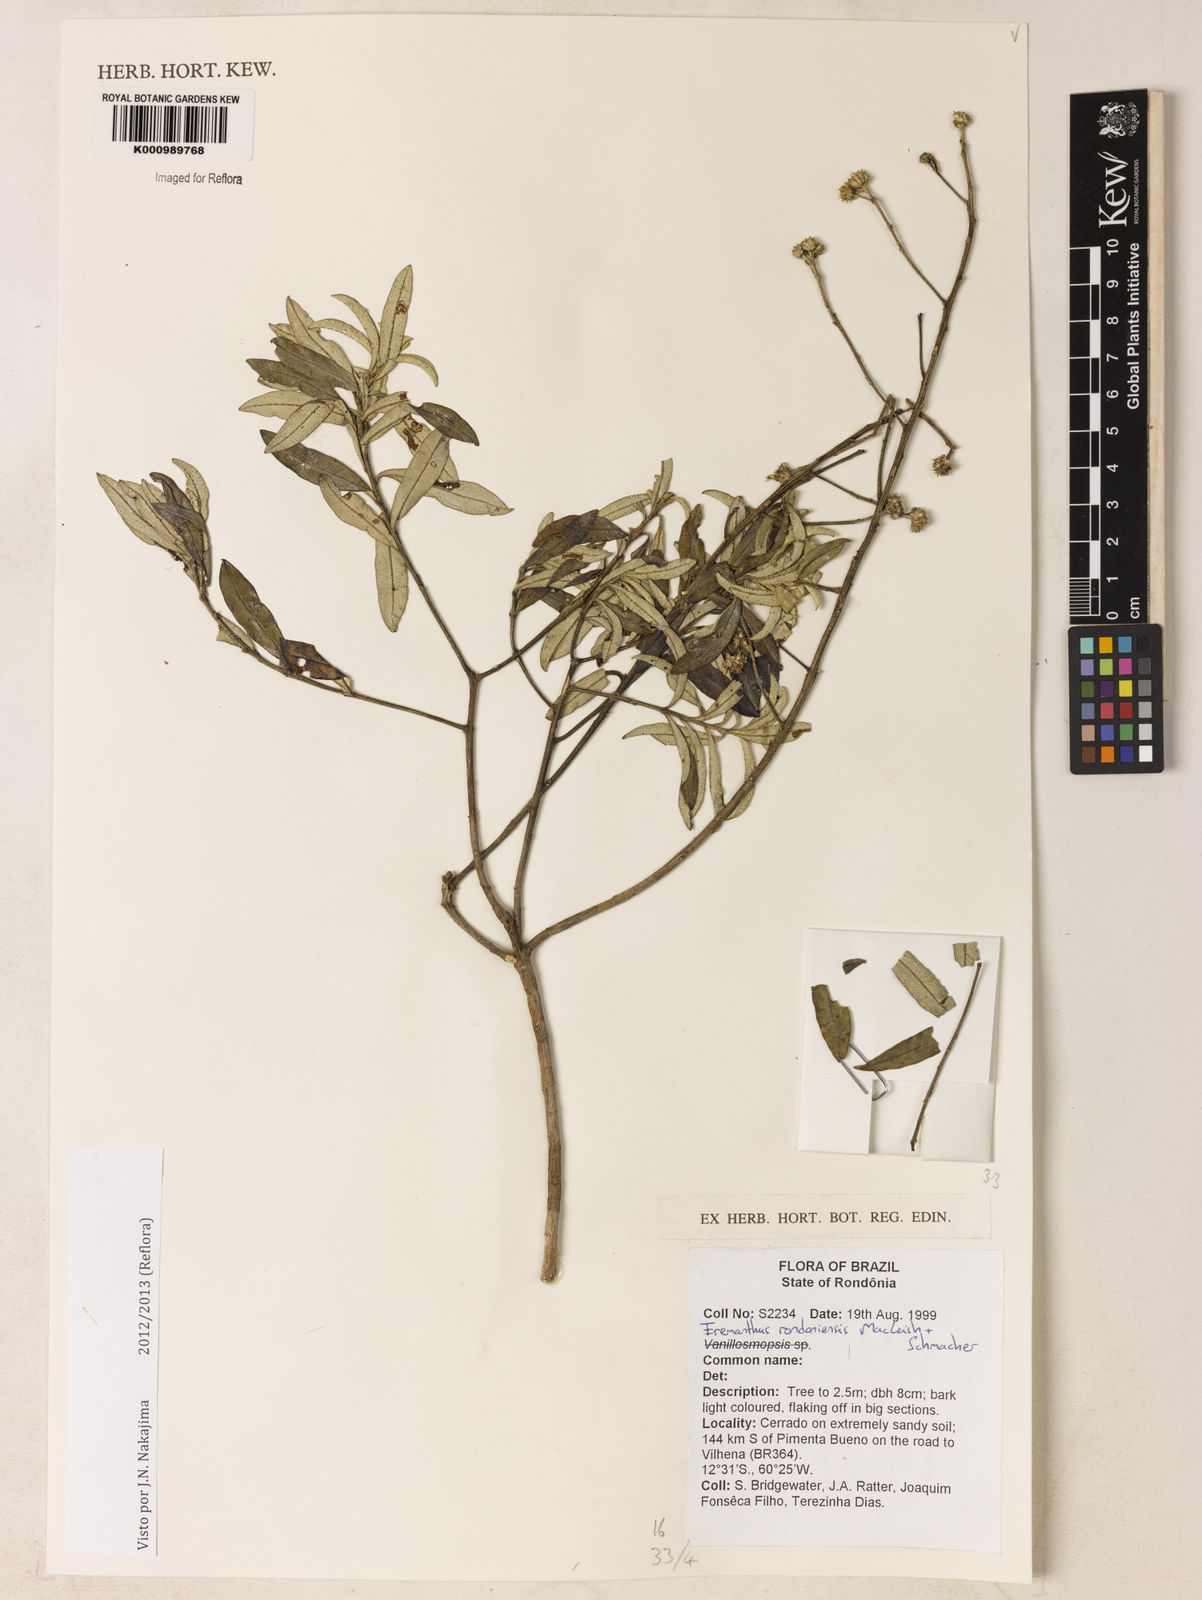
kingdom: Plantae
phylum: Tracheophyta
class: Magnoliopsida
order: Asterales
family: Asteraceae
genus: Eremanthus
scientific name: Eremanthus rondoniensis
